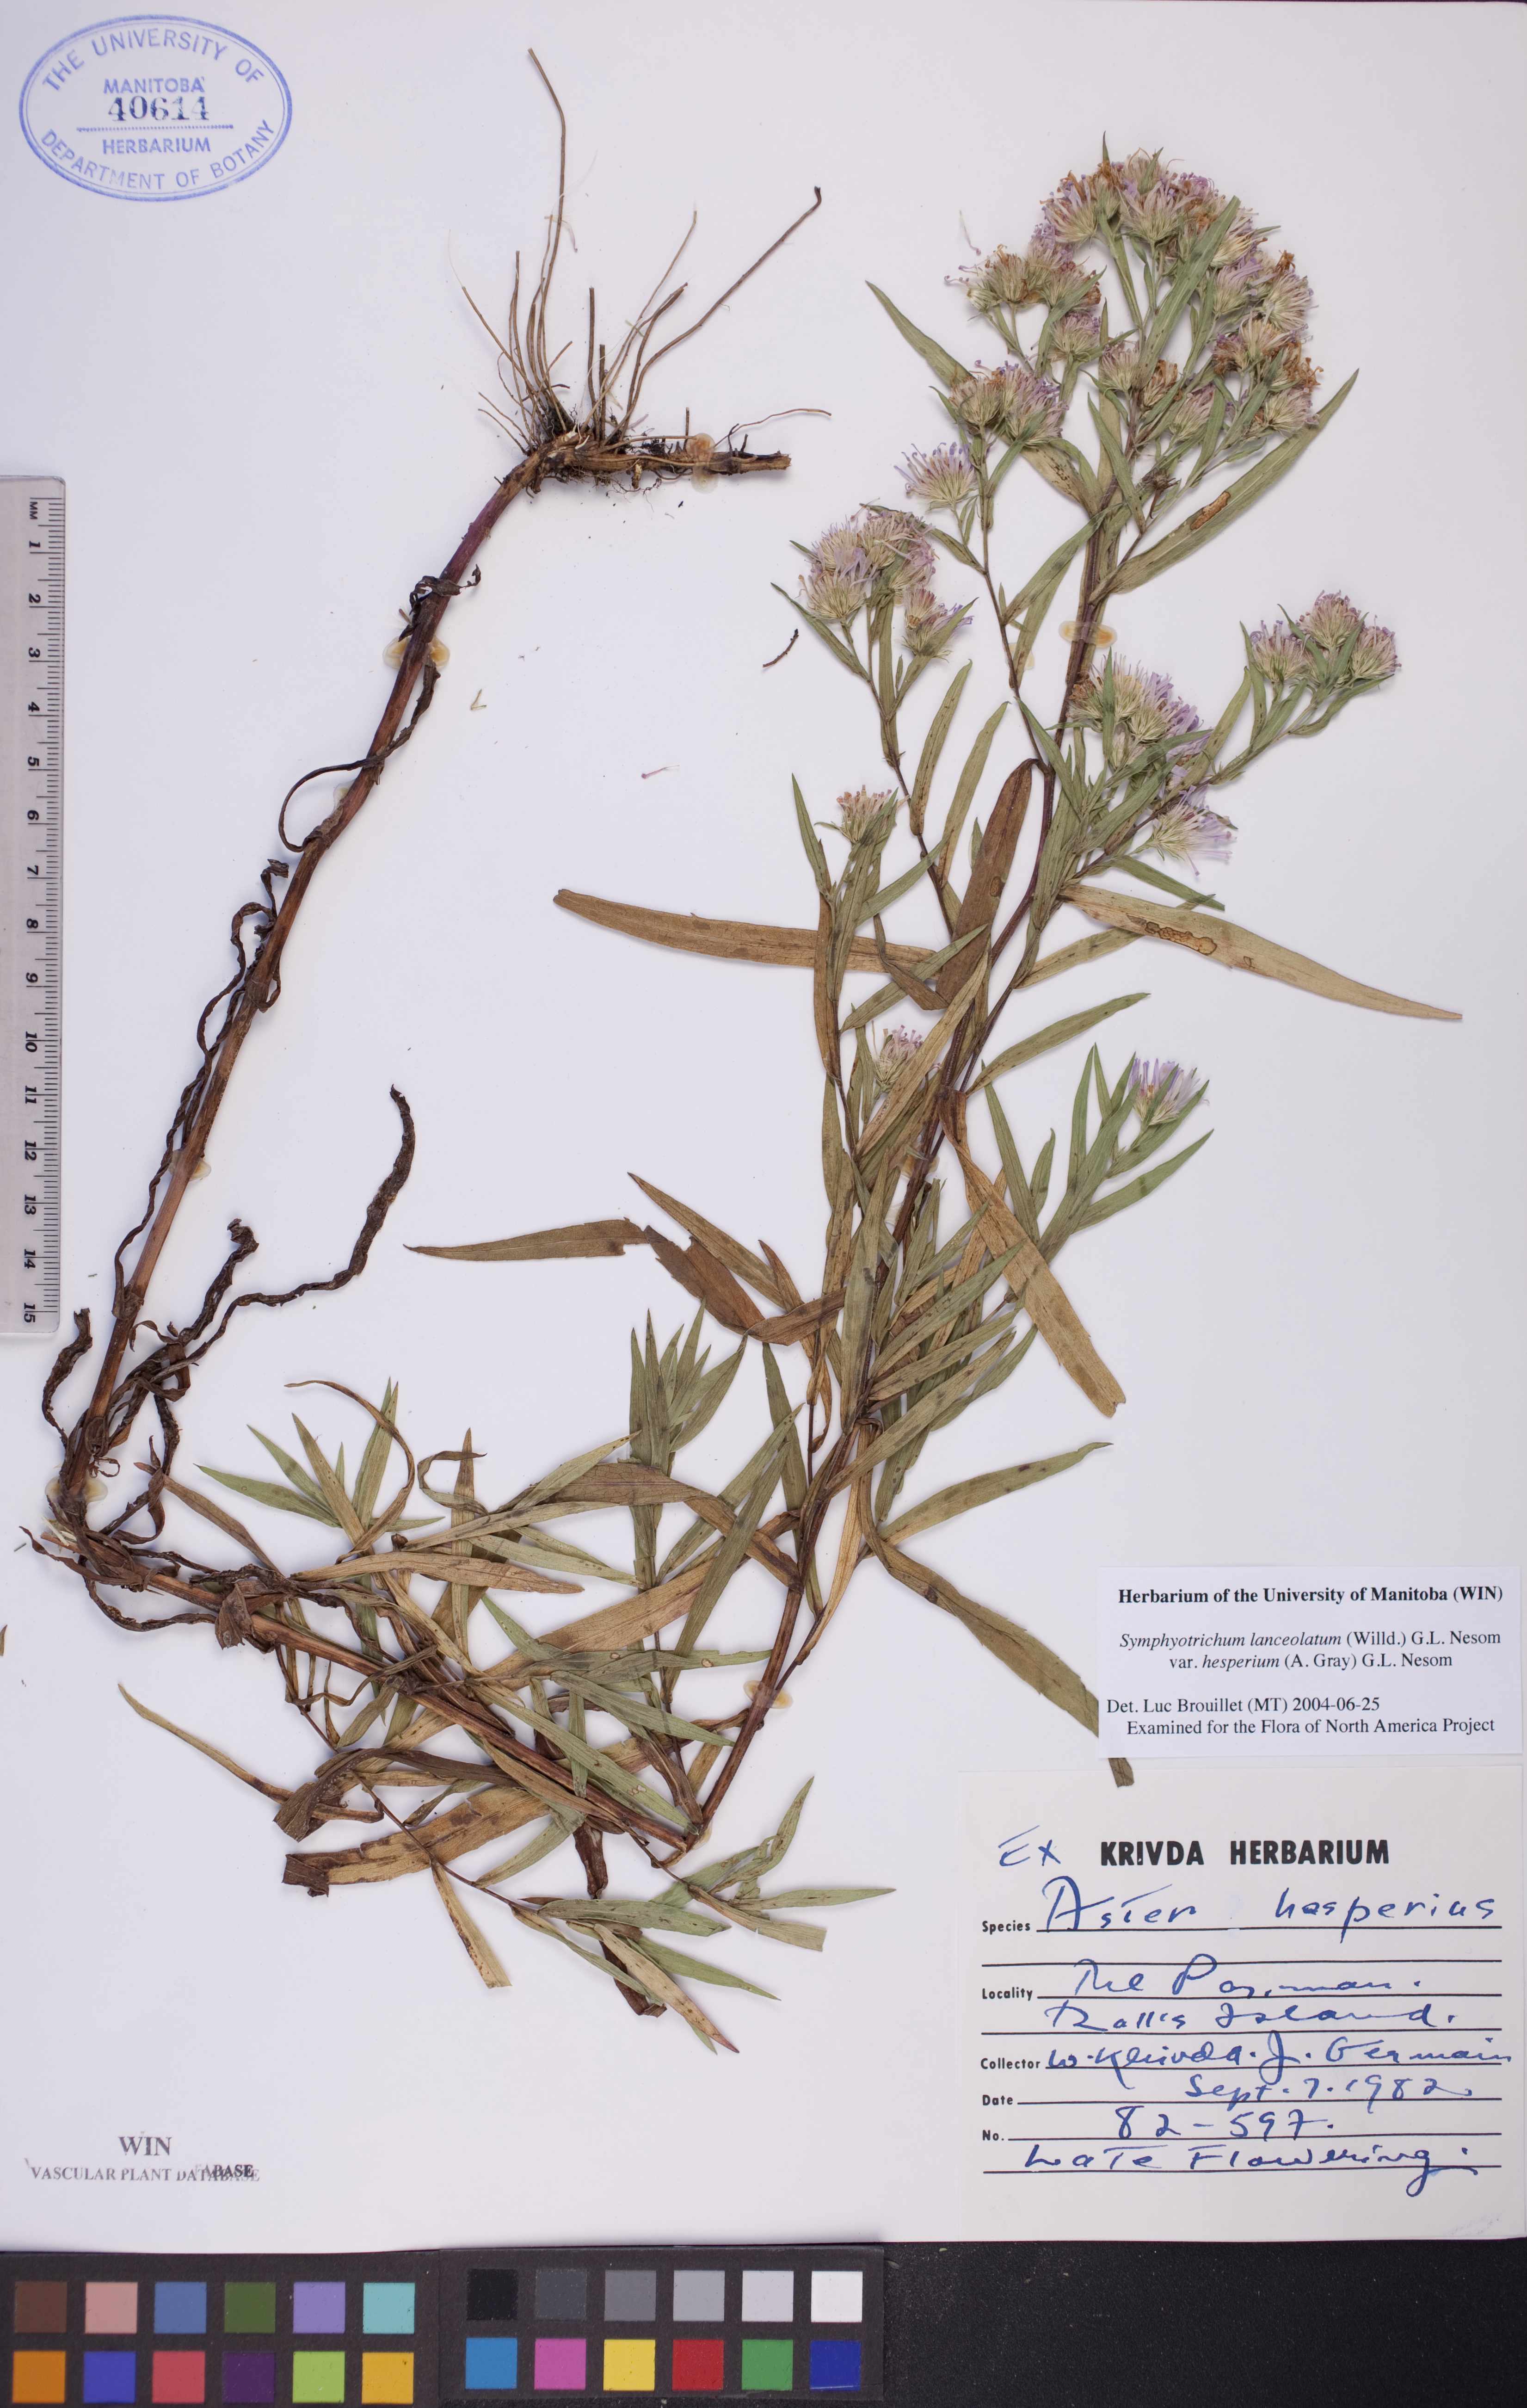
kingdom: Plantae
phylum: Tracheophyta
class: Magnoliopsida
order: Asterales
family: Asteraceae
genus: Symphyotrichum
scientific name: Symphyotrichum lanceolatum
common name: Panicled aster
